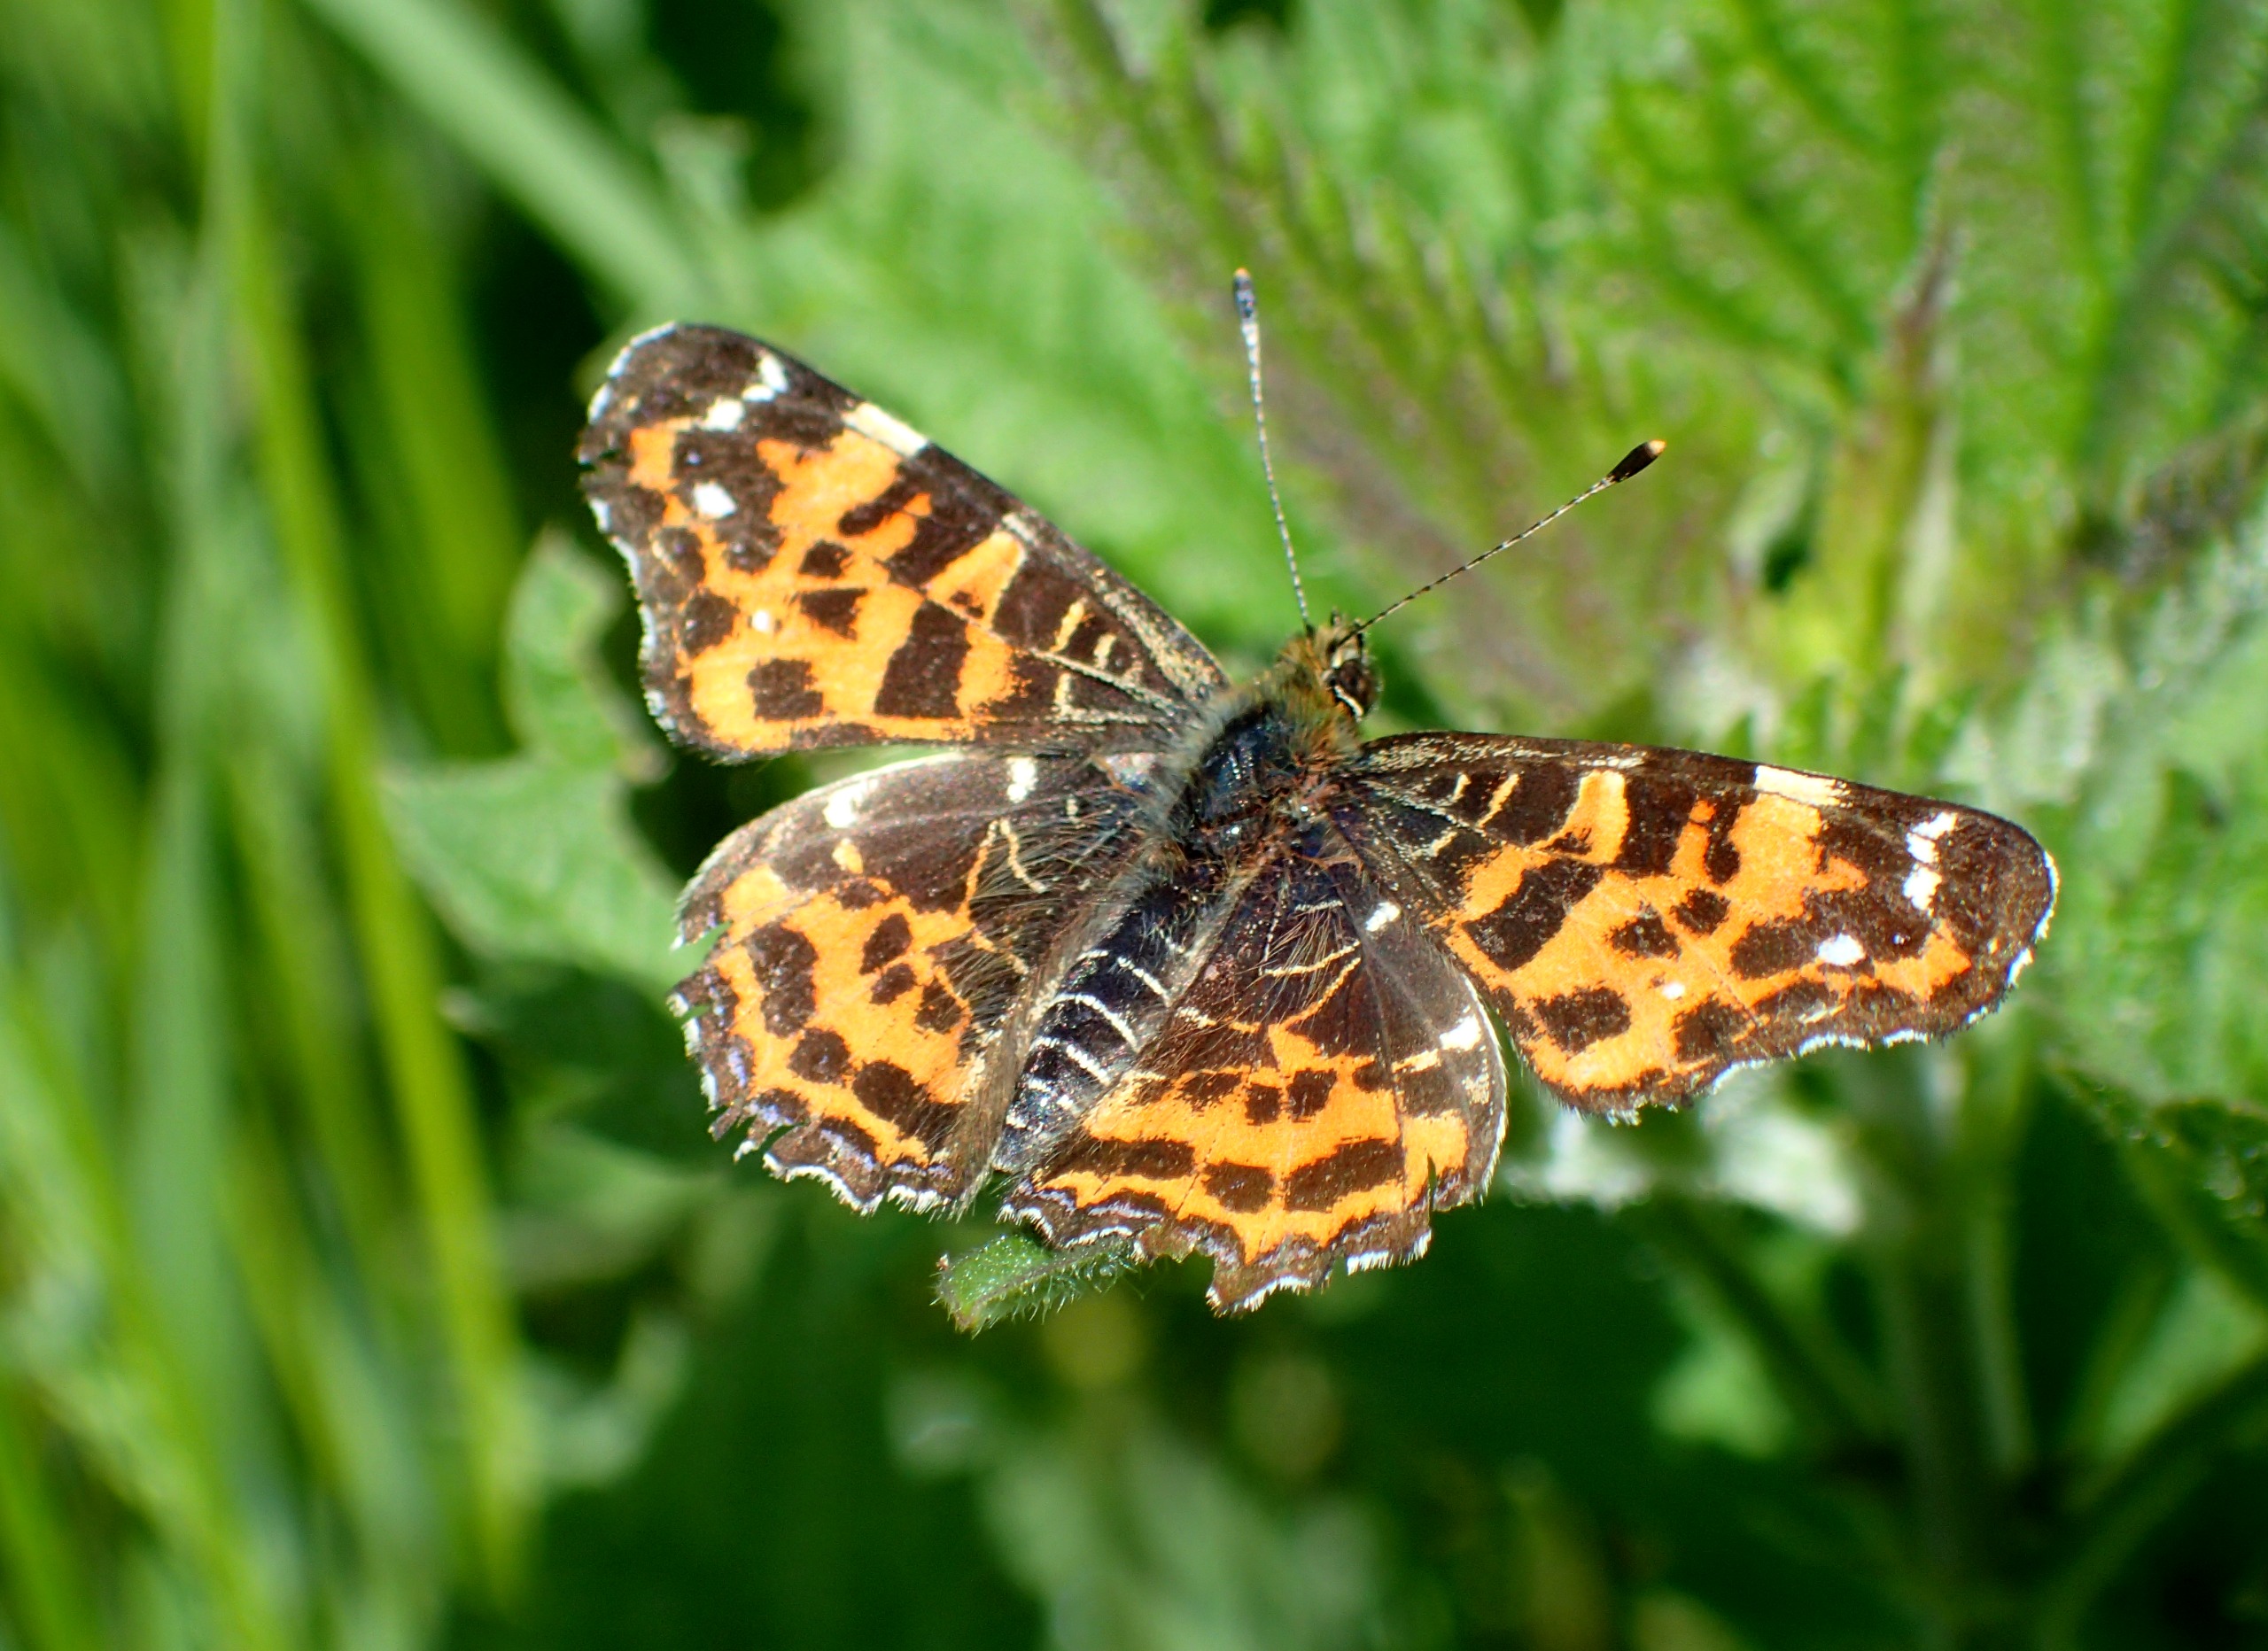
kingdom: Animalia
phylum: Arthropoda
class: Insecta
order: Lepidoptera
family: Nymphalidae
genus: Araschnia
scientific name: Araschnia levana
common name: Nældesommerfugl
